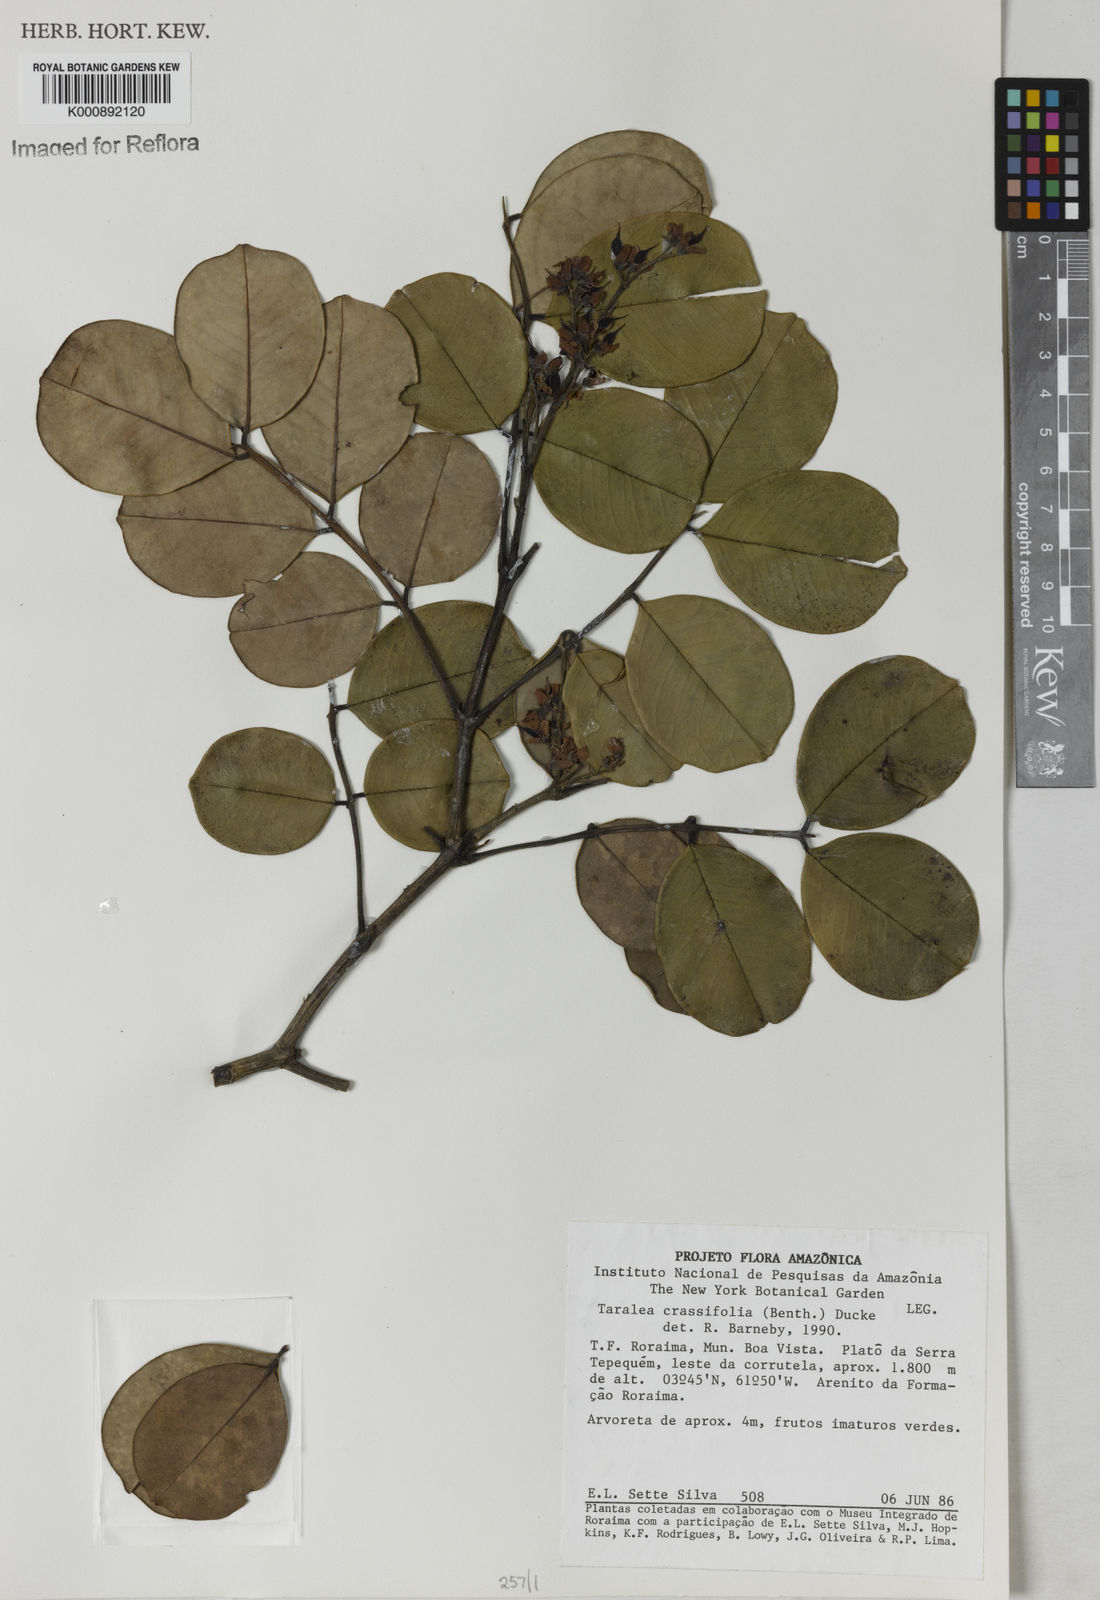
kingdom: Plantae
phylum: Tracheophyta
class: Magnoliopsida
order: Fabales
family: Fabaceae
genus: Taralea
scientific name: Taralea crassifolia
